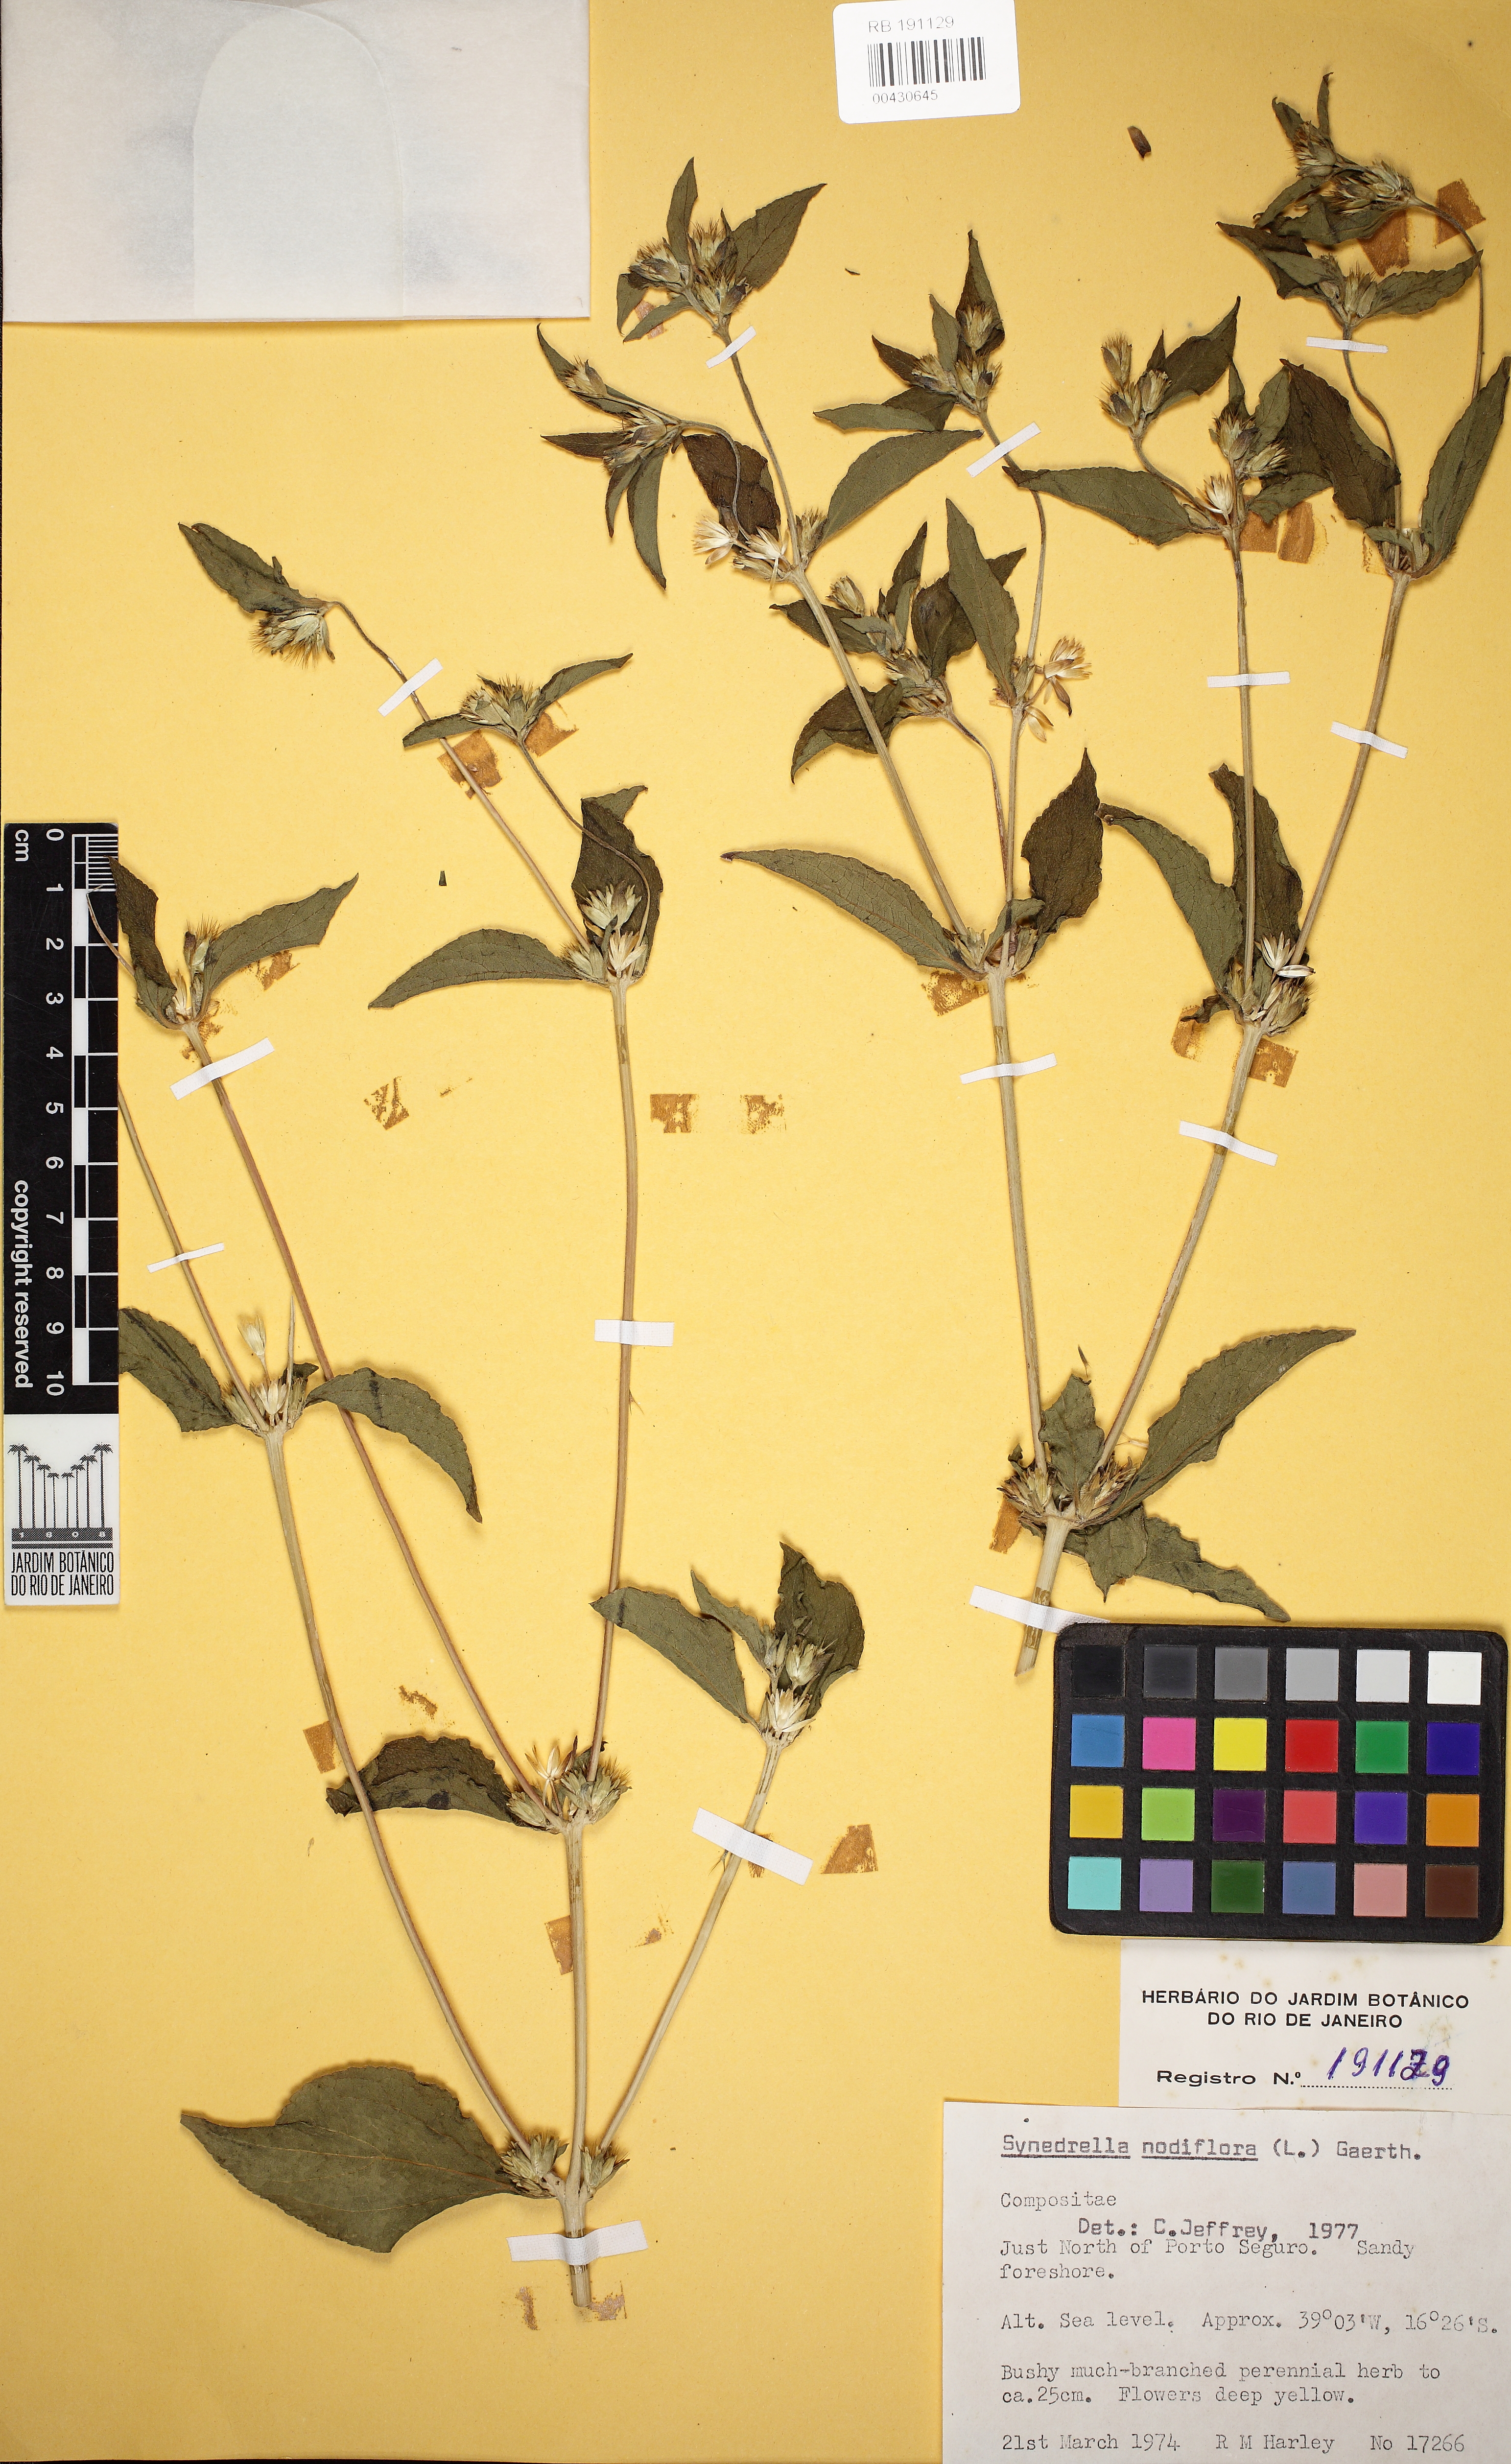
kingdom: Plantae
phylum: Tracheophyta
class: Magnoliopsida
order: Asterales
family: Asteraceae
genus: Synedrella
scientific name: Synedrella nodiflora
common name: Nodeweed
